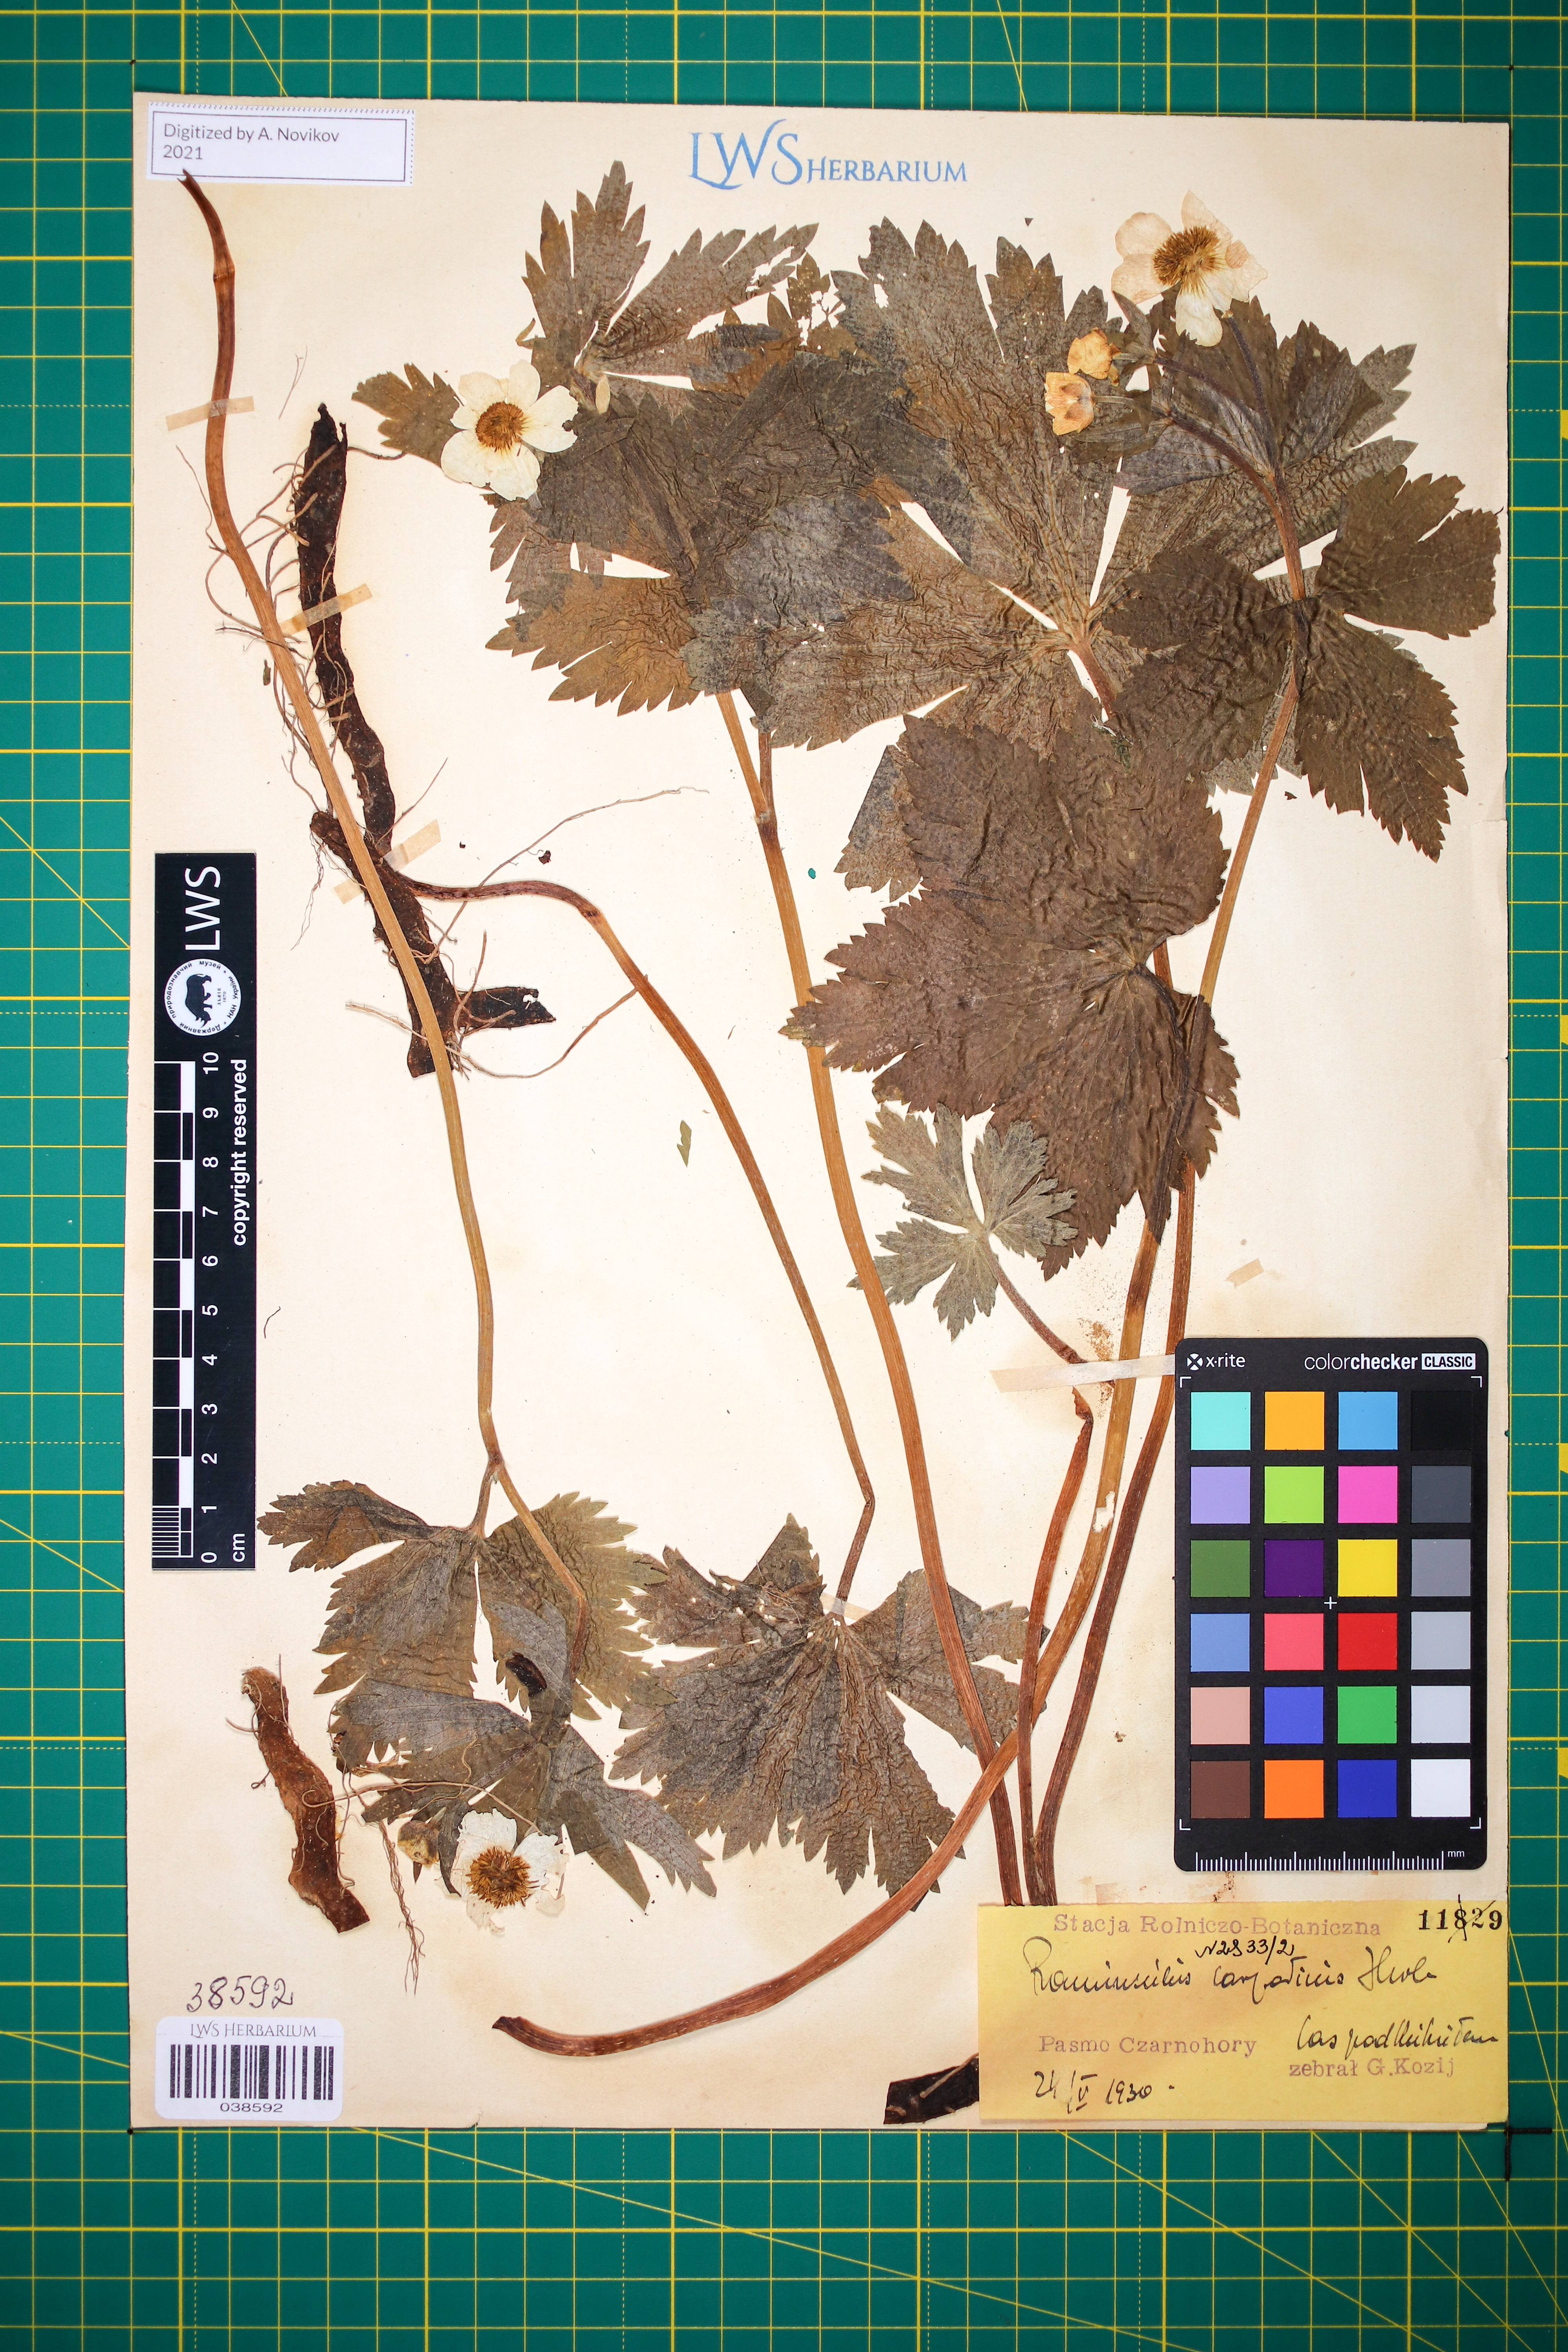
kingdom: Plantae
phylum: Tracheophyta
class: Magnoliopsida
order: Ranunculales
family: Ranunculaceae
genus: Ranunculus
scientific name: Ranunculus carpaticus
